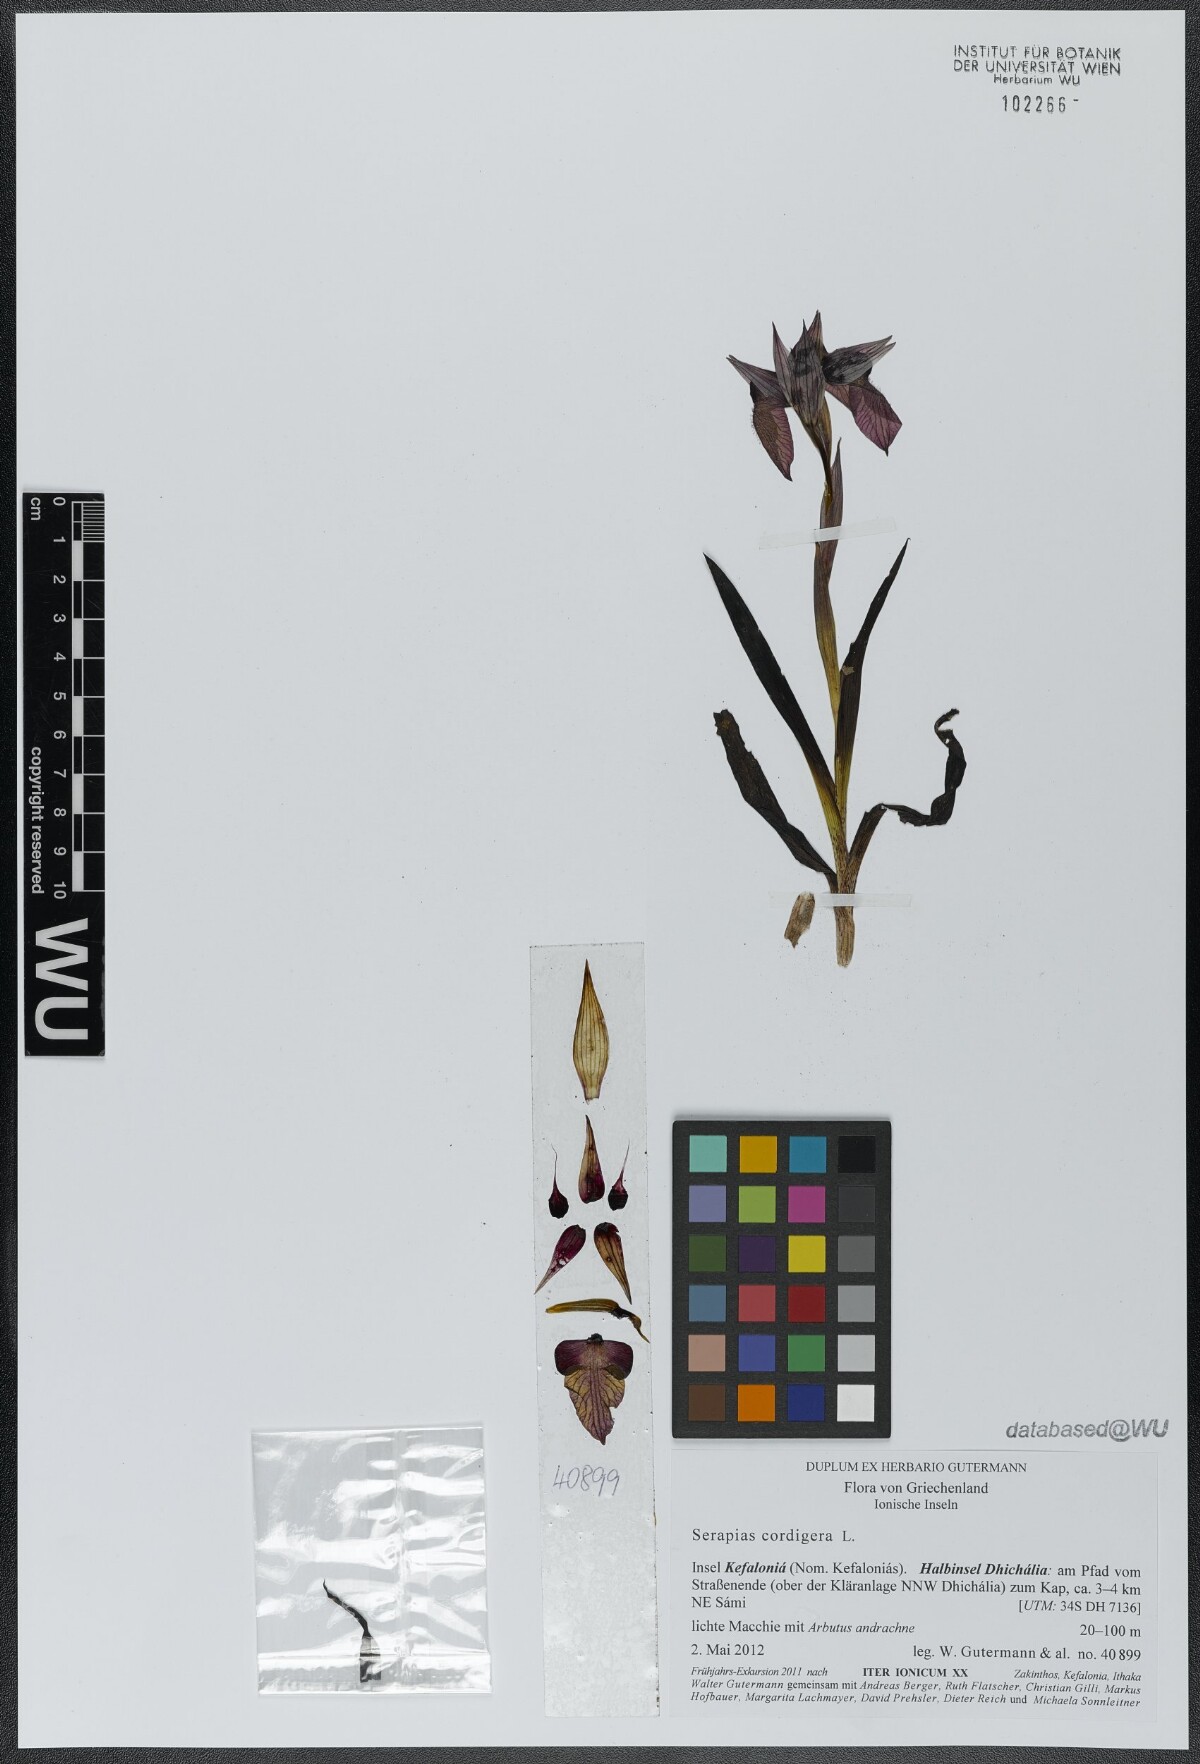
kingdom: Plantae
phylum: Tracheophyta
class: Liliopsida
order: Asparagales
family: Orchidaceae
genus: Serapias
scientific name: Serapias cordigera
